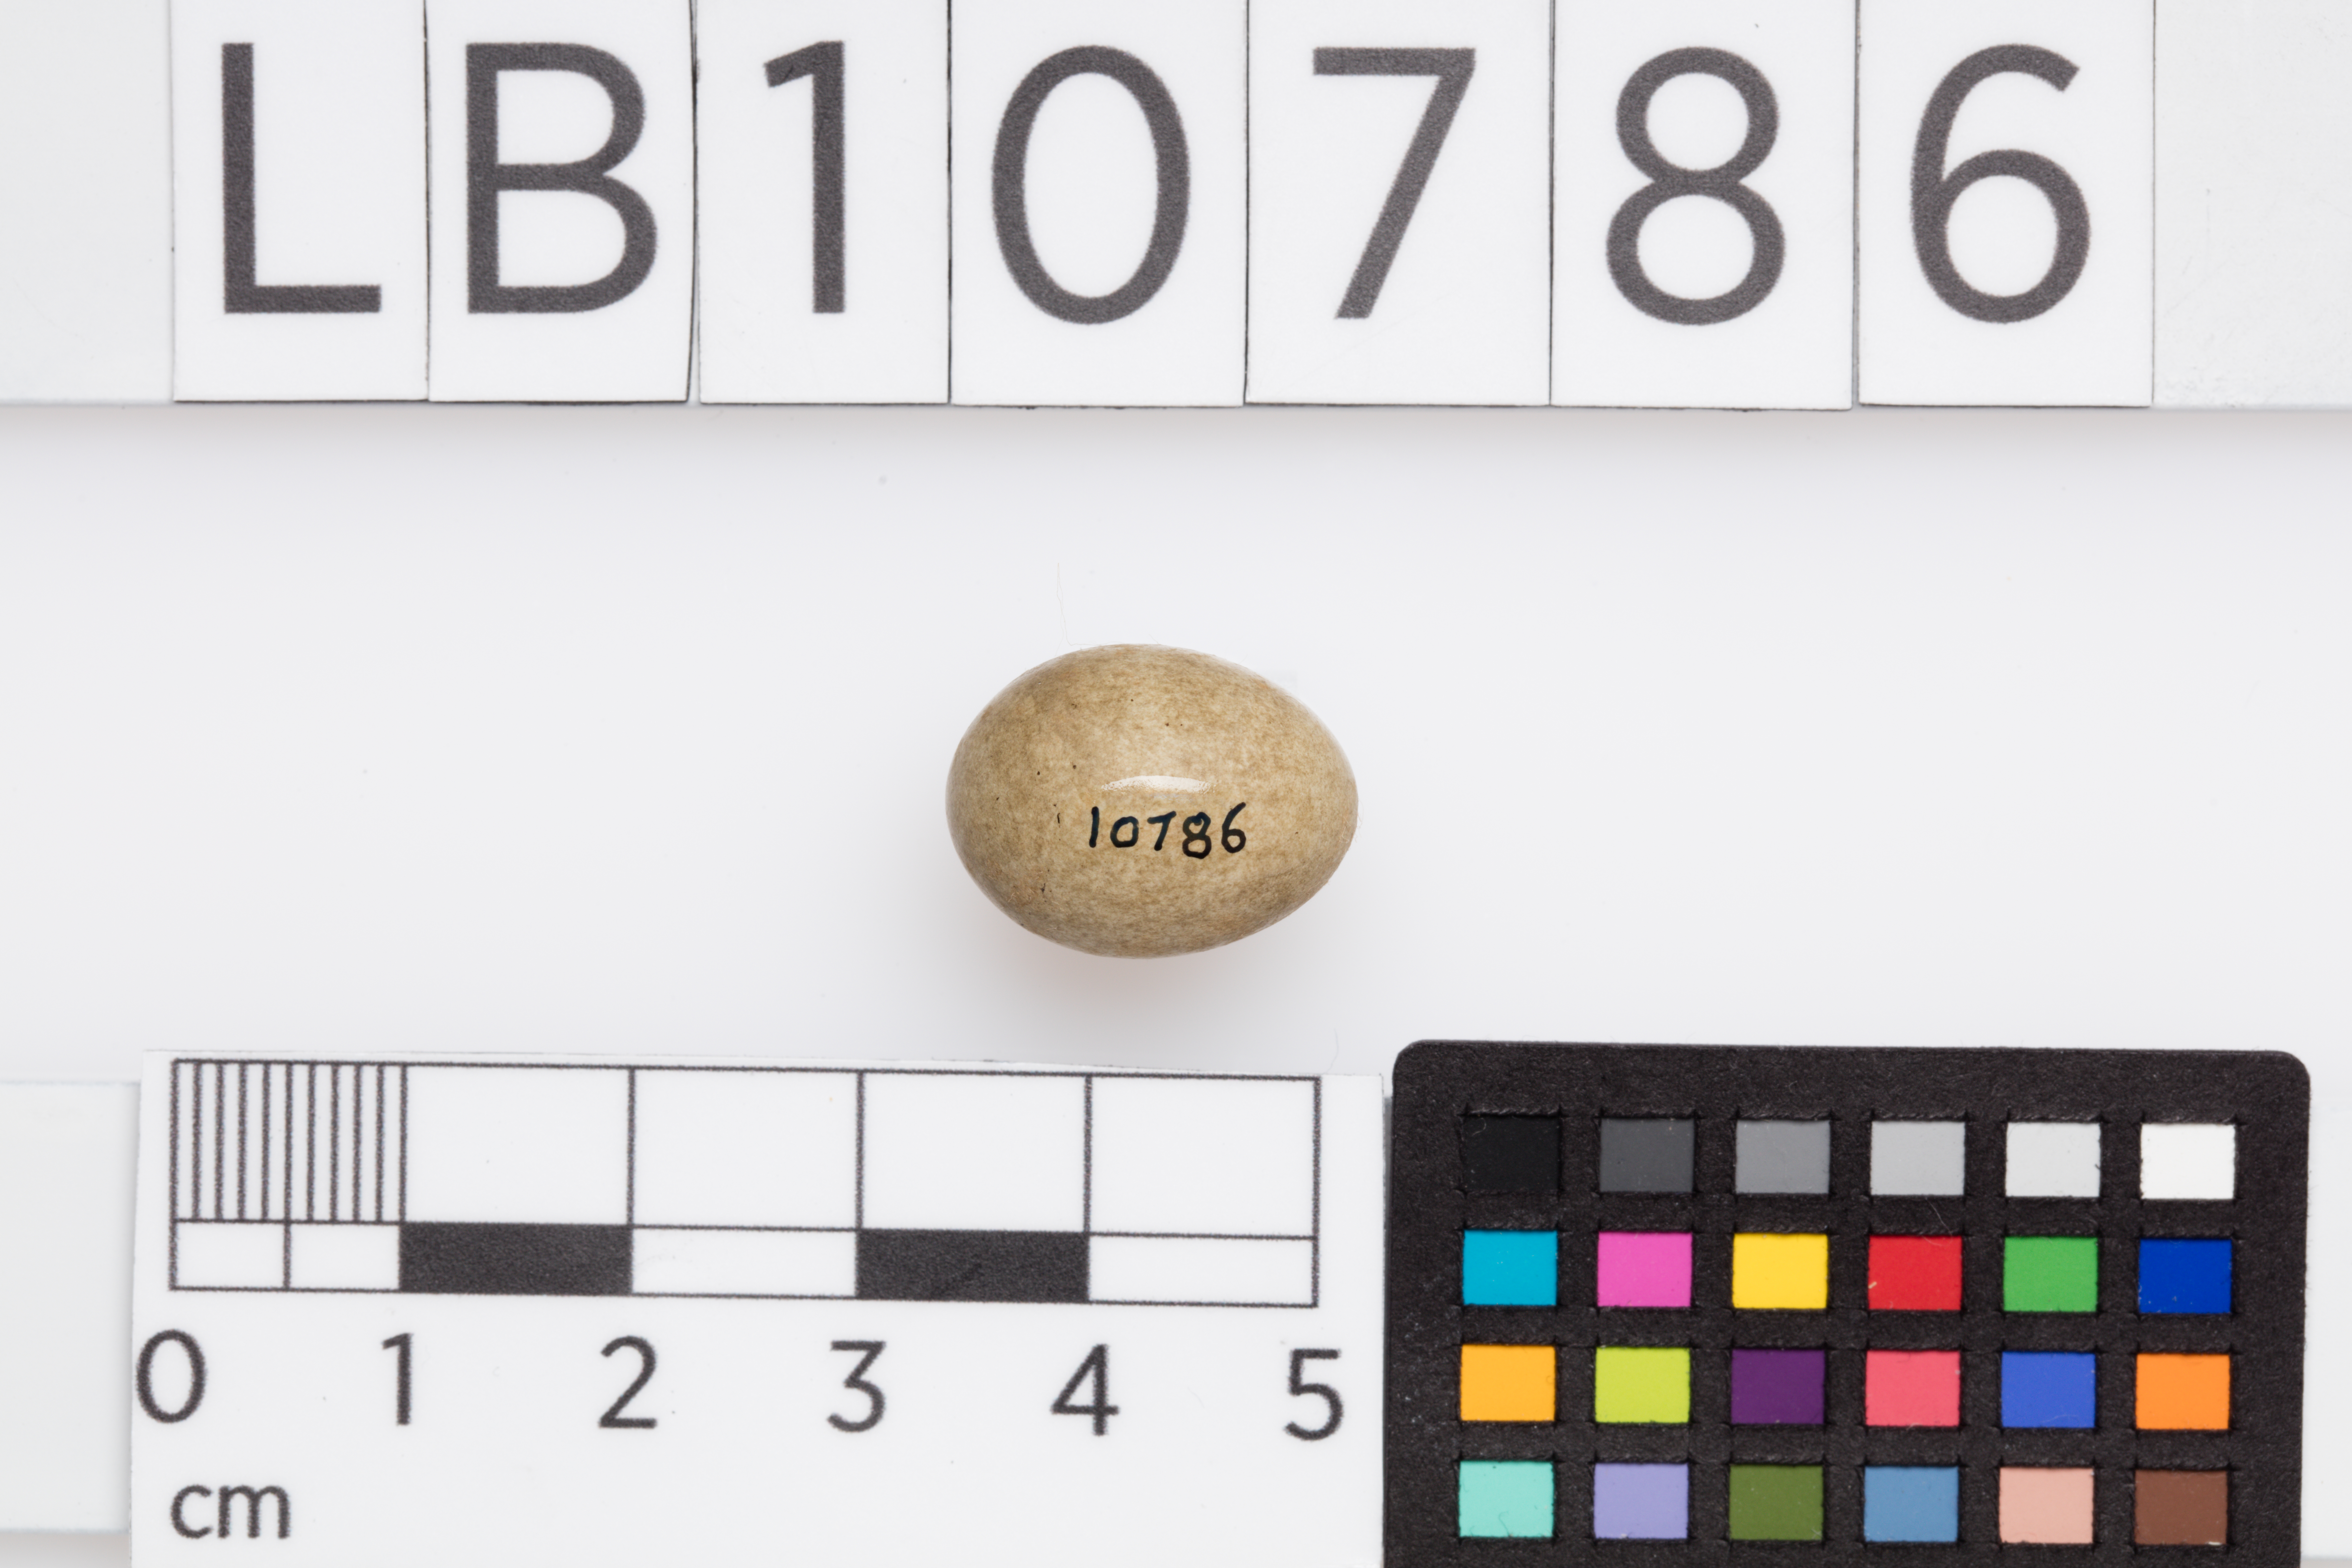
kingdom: Animalia
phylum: Chordata
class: Aves
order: Passeriformes
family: Acrocephalidae
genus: Acrocephalus
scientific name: Acrocephalus schoenobaenus
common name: Sedge warbler
